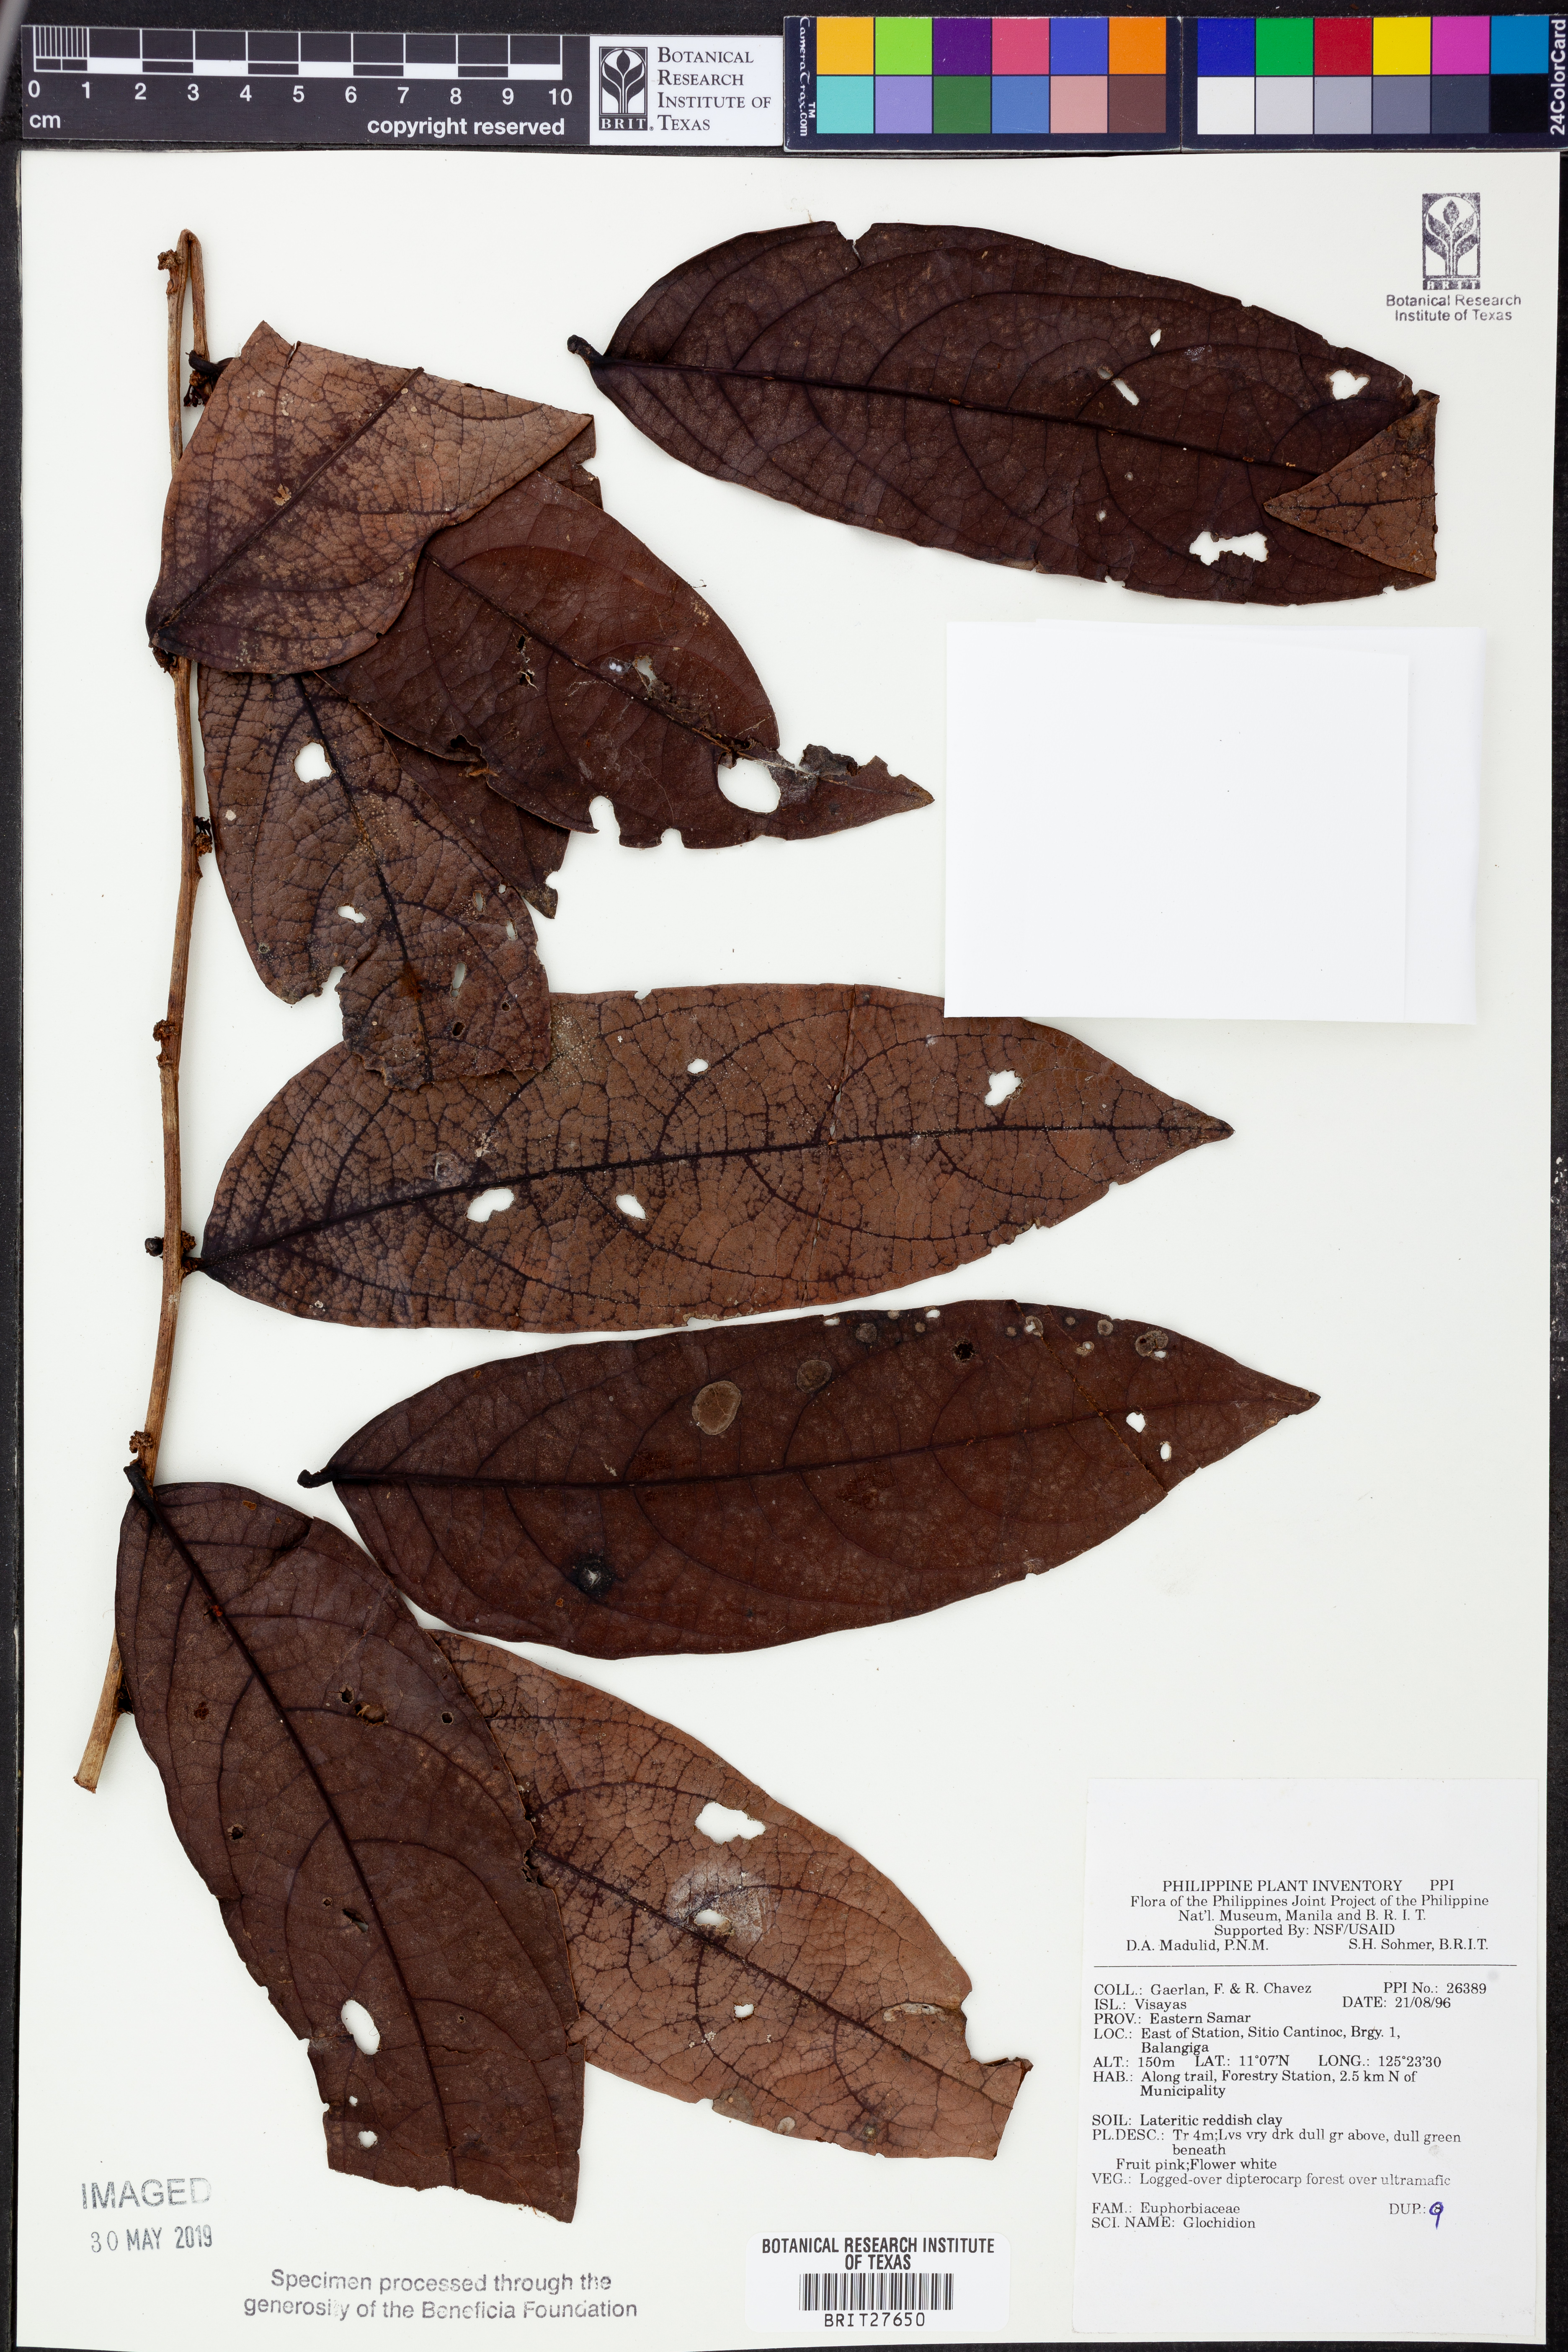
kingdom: Plantae
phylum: Tracheophyta
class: Magnoliopsida
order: Malpighiales
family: Phyllanthaceae
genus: Glochidion
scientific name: Glochidion
